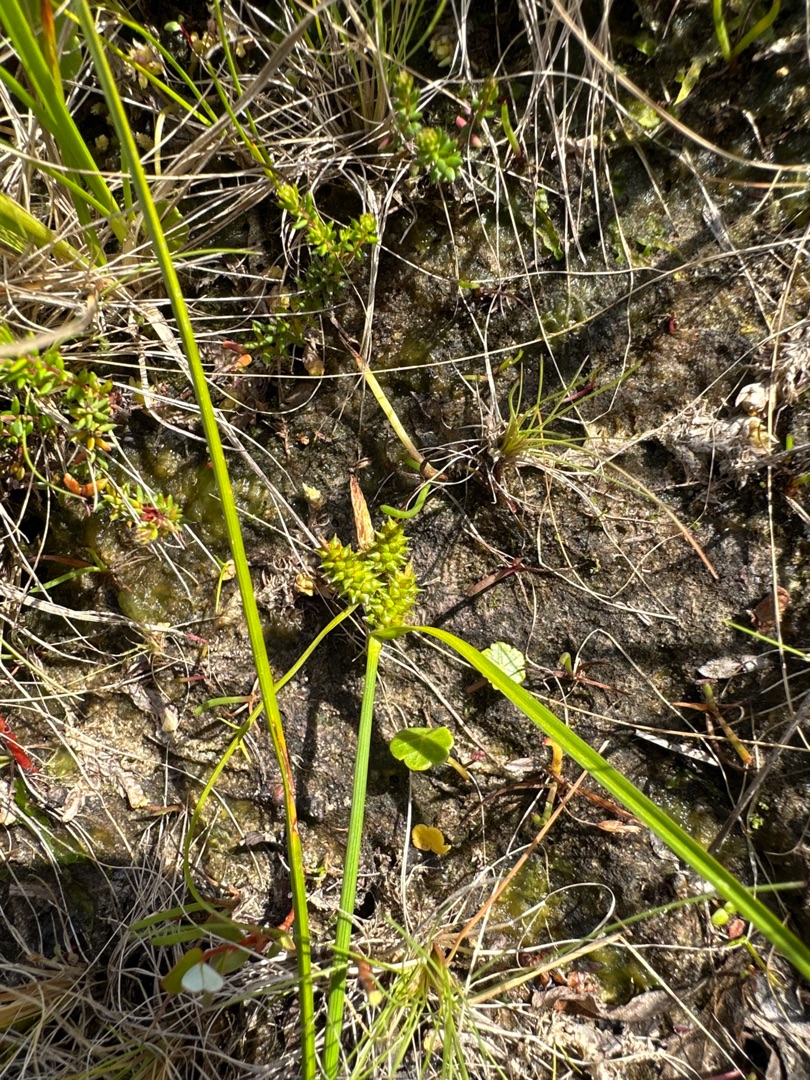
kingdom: Plantae
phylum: Tracheophyta
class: Liliopsida
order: Poales
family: Cyperaceae
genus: Carex
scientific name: Carex oederi
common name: Dværg-star
